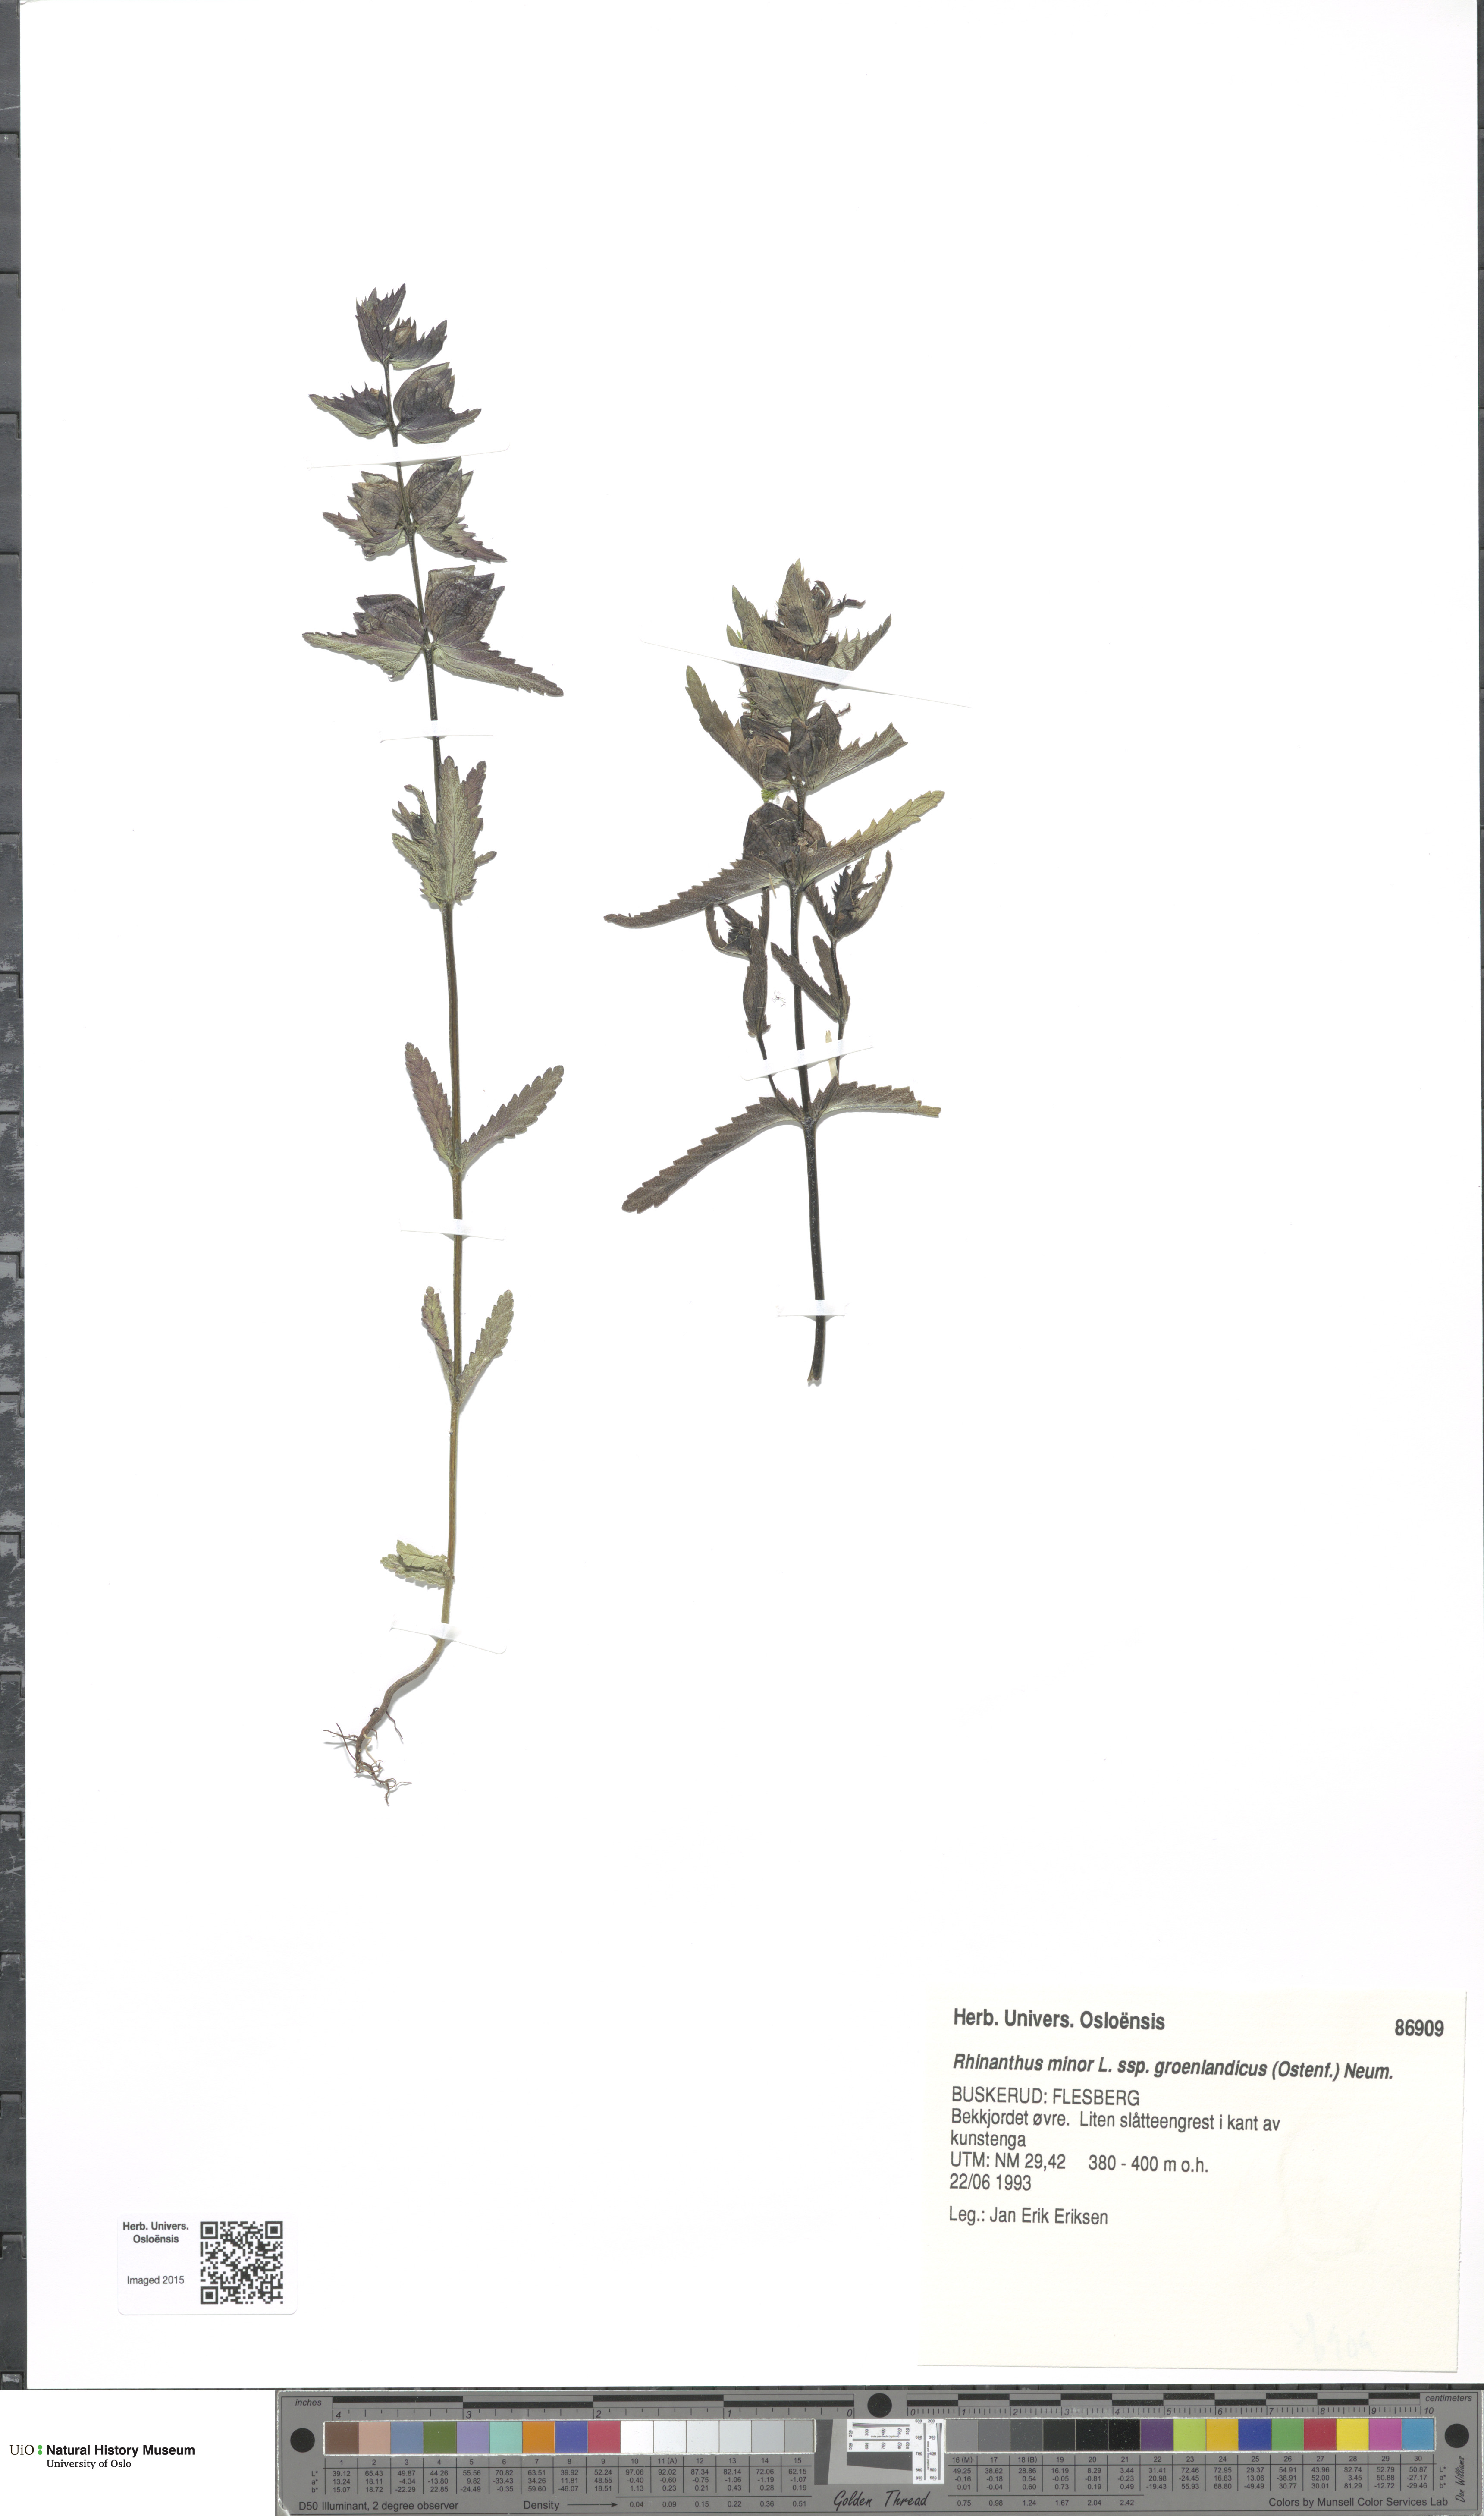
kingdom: Plantae
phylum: Tracheophyta
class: Magnoliopsida
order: Lamiales
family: Orobanchaceae
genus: Rhinanthus
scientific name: Rhinanthus groenlandicus
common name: Little yellow rattle
